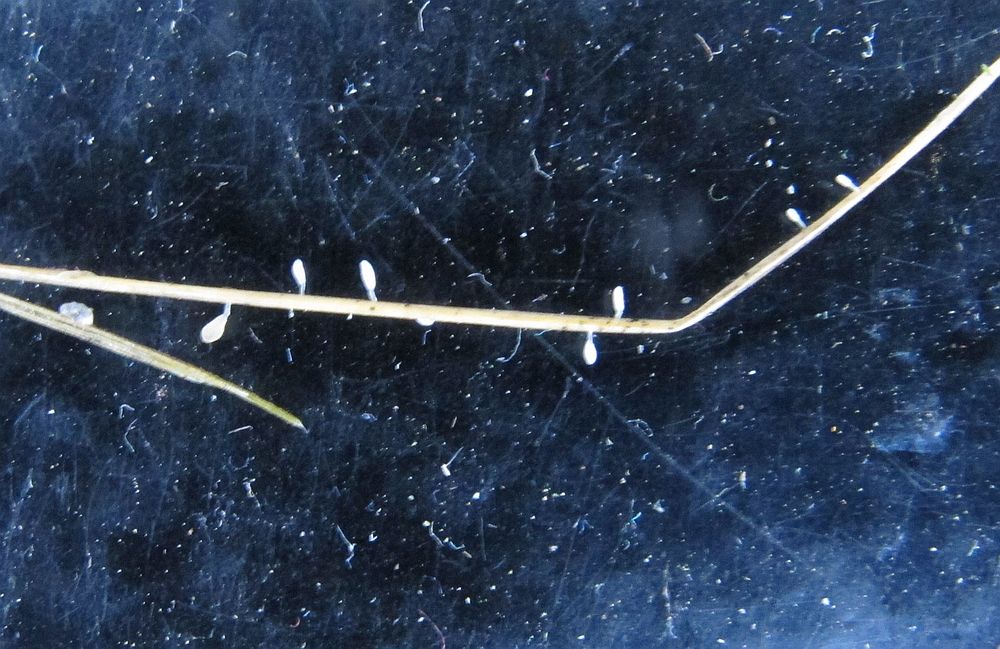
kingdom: Fungi
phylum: Basidiomycota
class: Agaricomycetes
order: Agaricales
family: Typhulaceae
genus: Typhula
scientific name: Typhula berthieri
